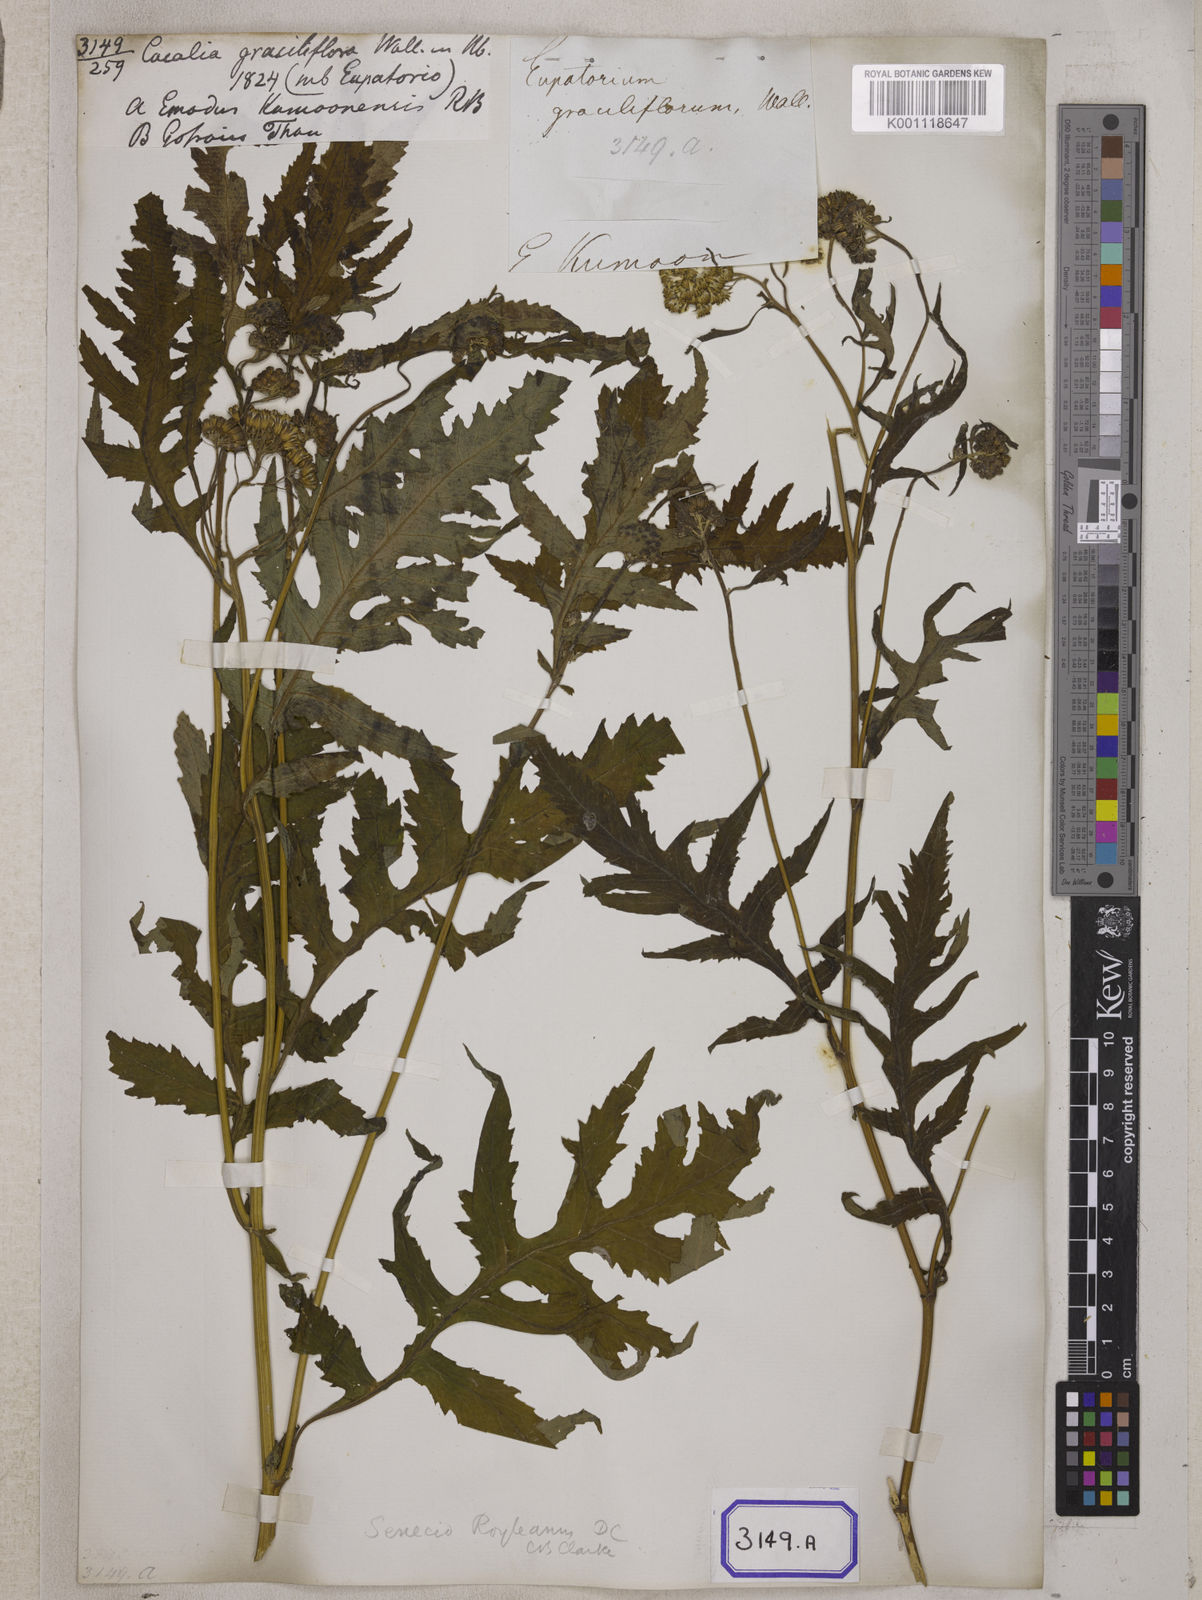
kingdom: Plantae
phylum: Tracheophyta
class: Magnoliopsida
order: Asterales
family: Asteraceae
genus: Senecio
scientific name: Senecio royleanus
